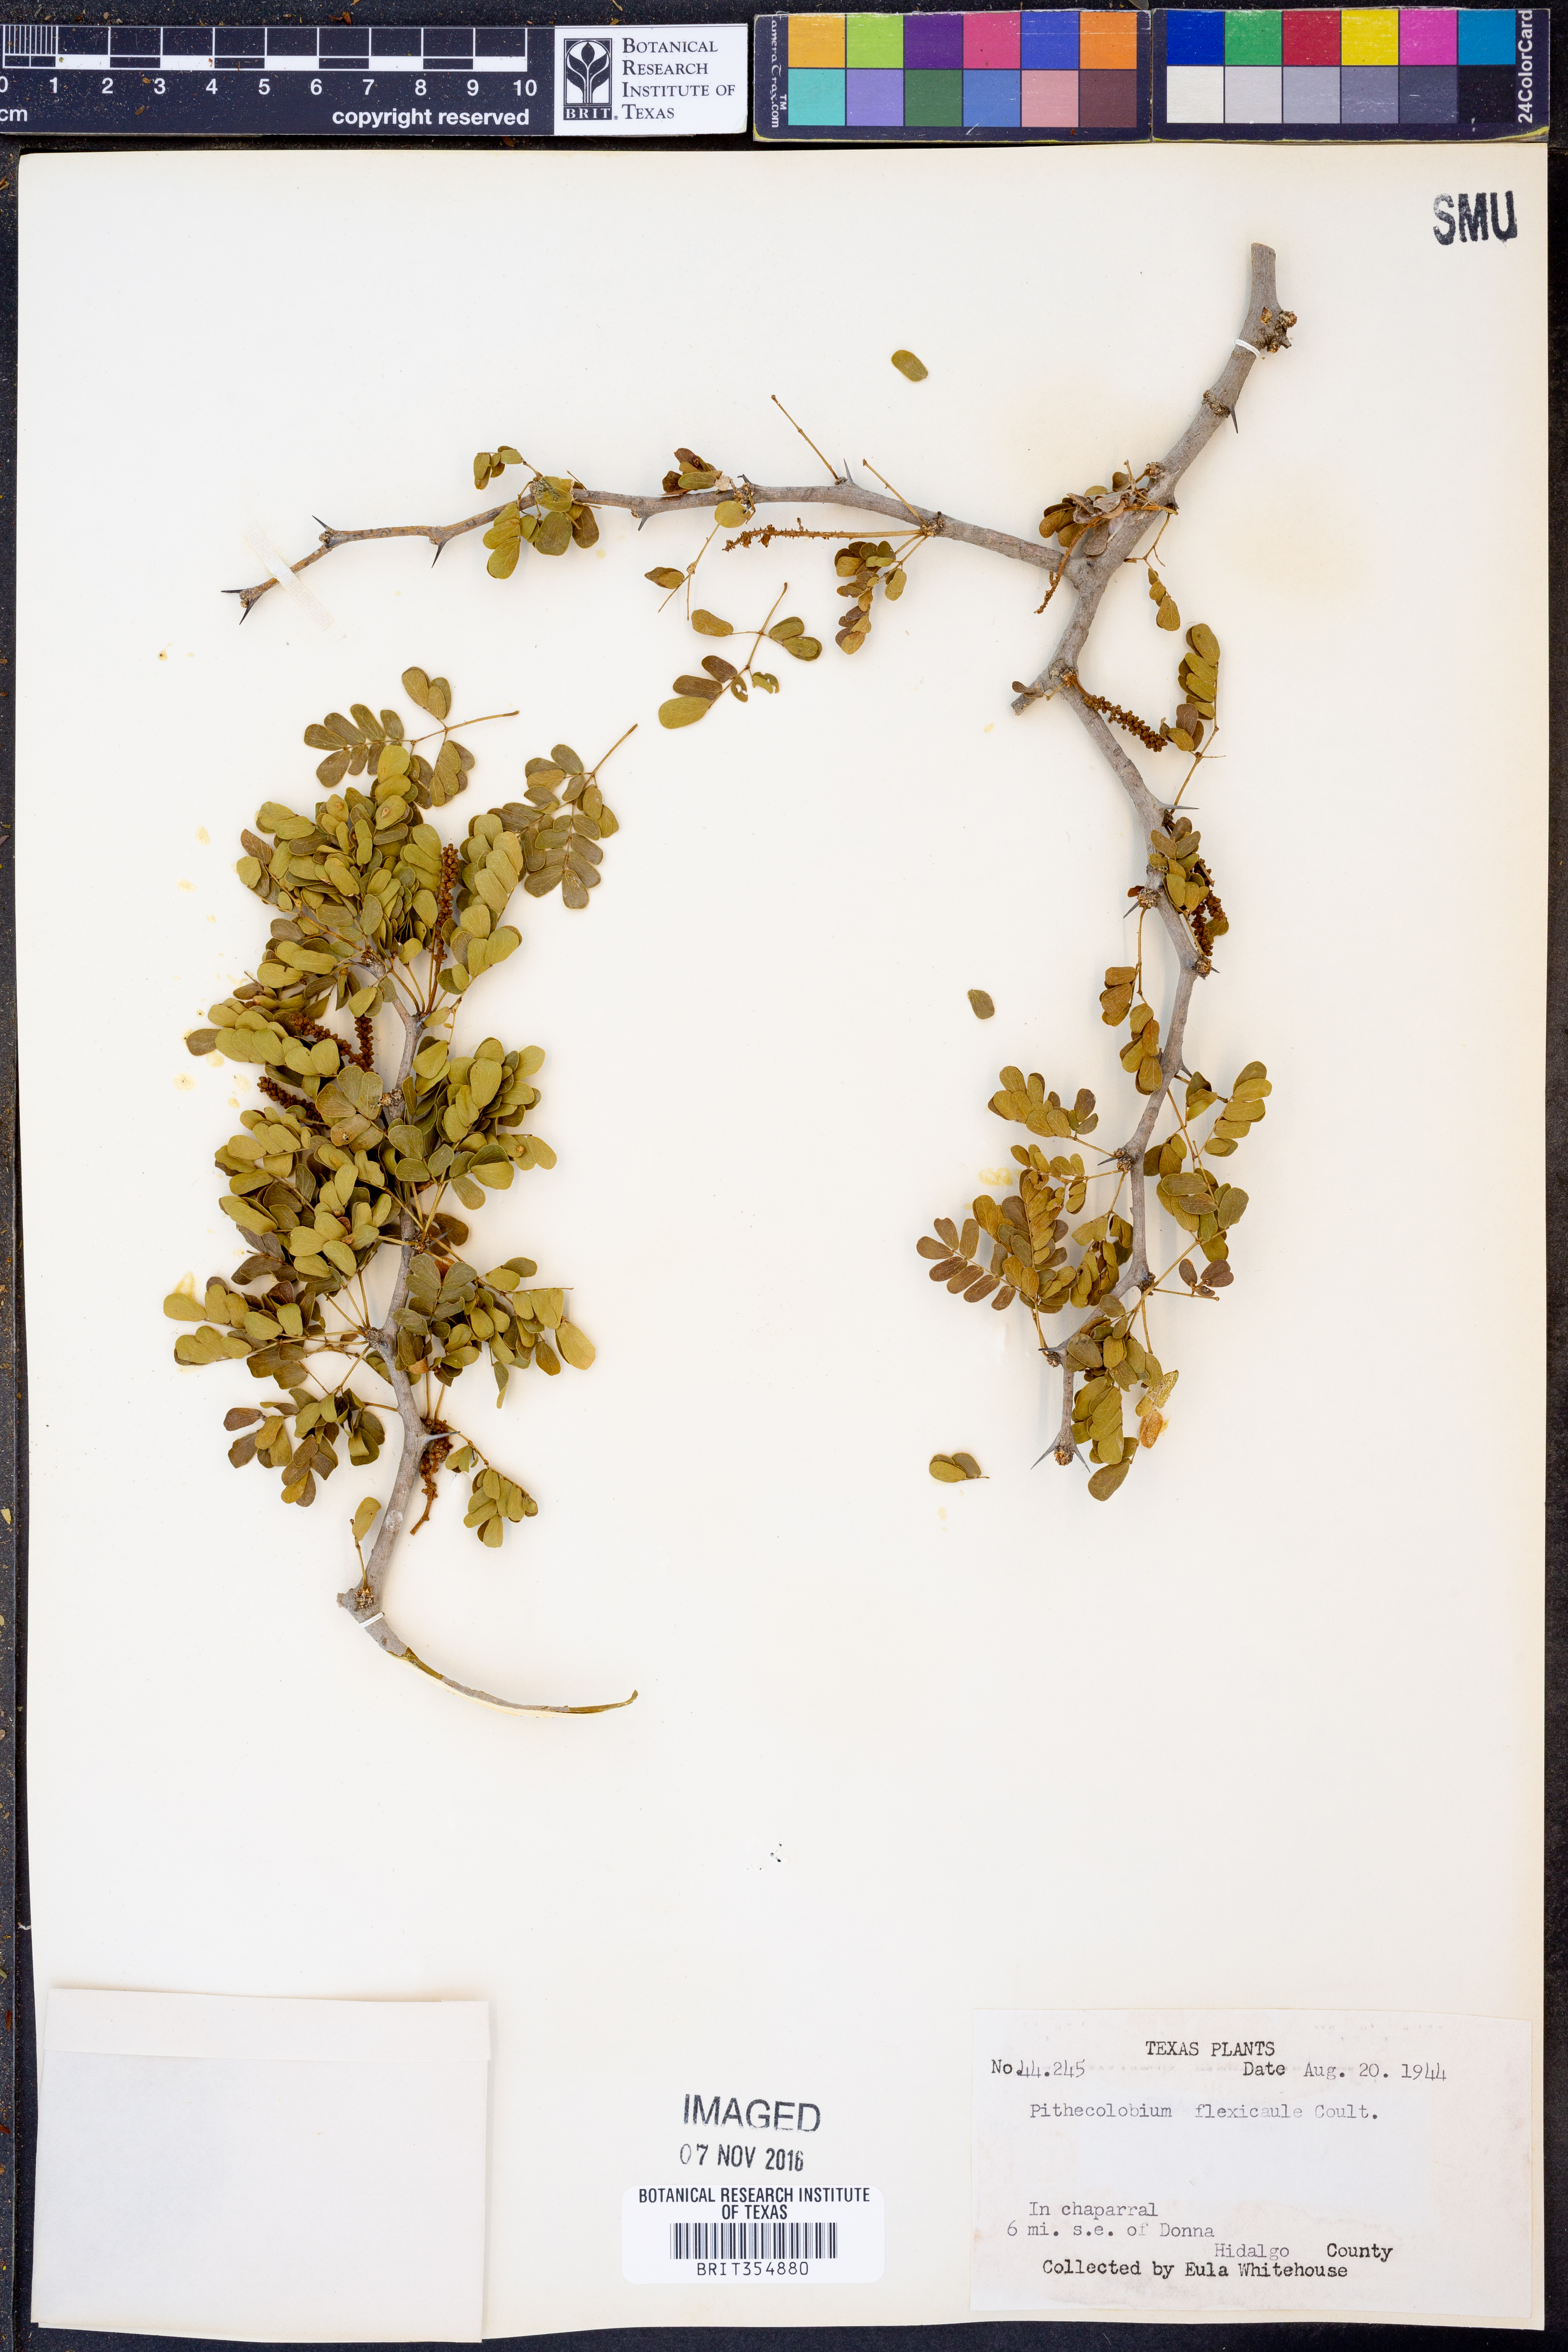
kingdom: Plantae
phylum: Tracheophyta
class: Magnoliopsida
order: Fabales
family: Fabaceae
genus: Ebenopsis
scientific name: Ebenopsis ebano
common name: Ebony blackbead
